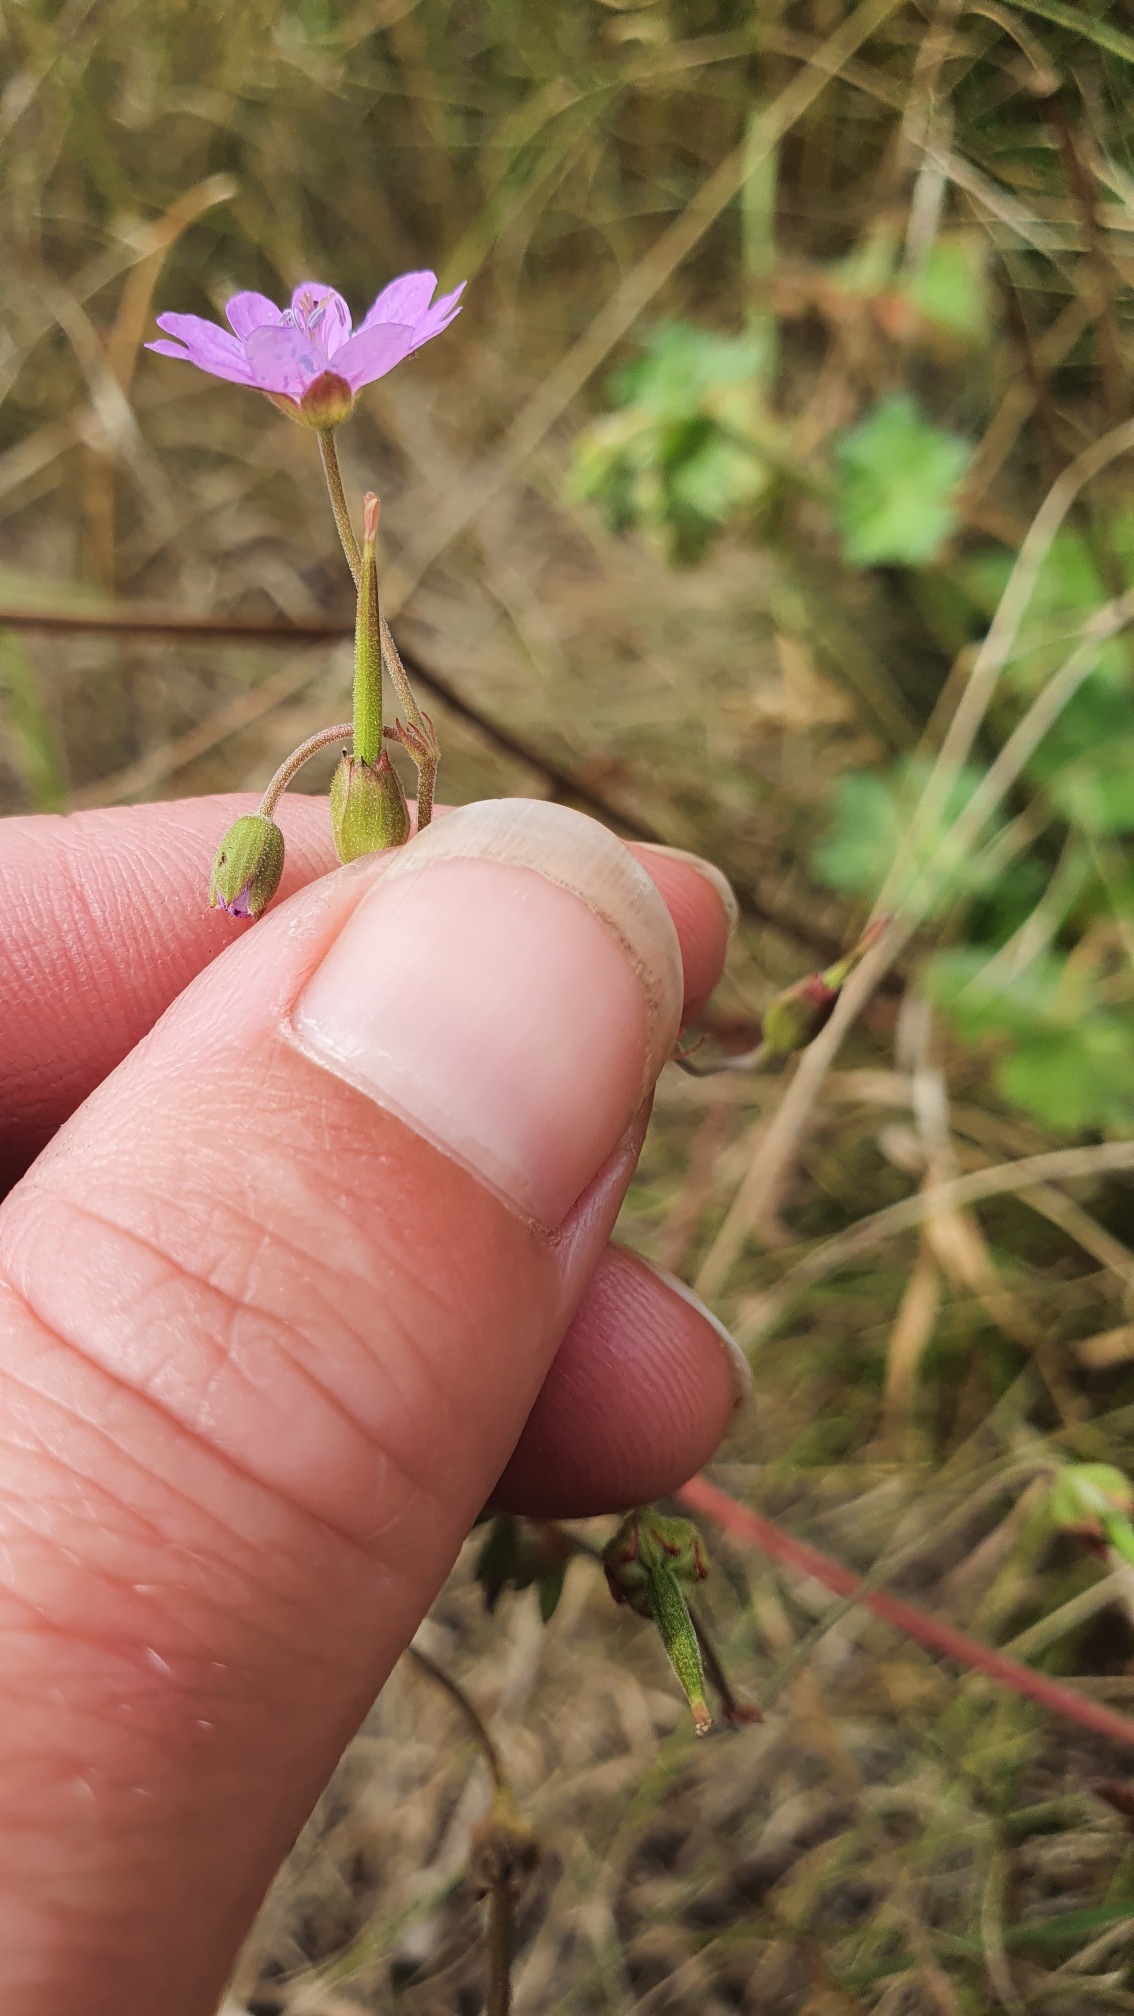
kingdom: Plantae
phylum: Tracheophyta
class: Magnoliopsida
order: Geraniales
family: Geraniaceae
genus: Geranium
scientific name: Geranium pyrenaicum
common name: Pyrenæisk storkenæb
